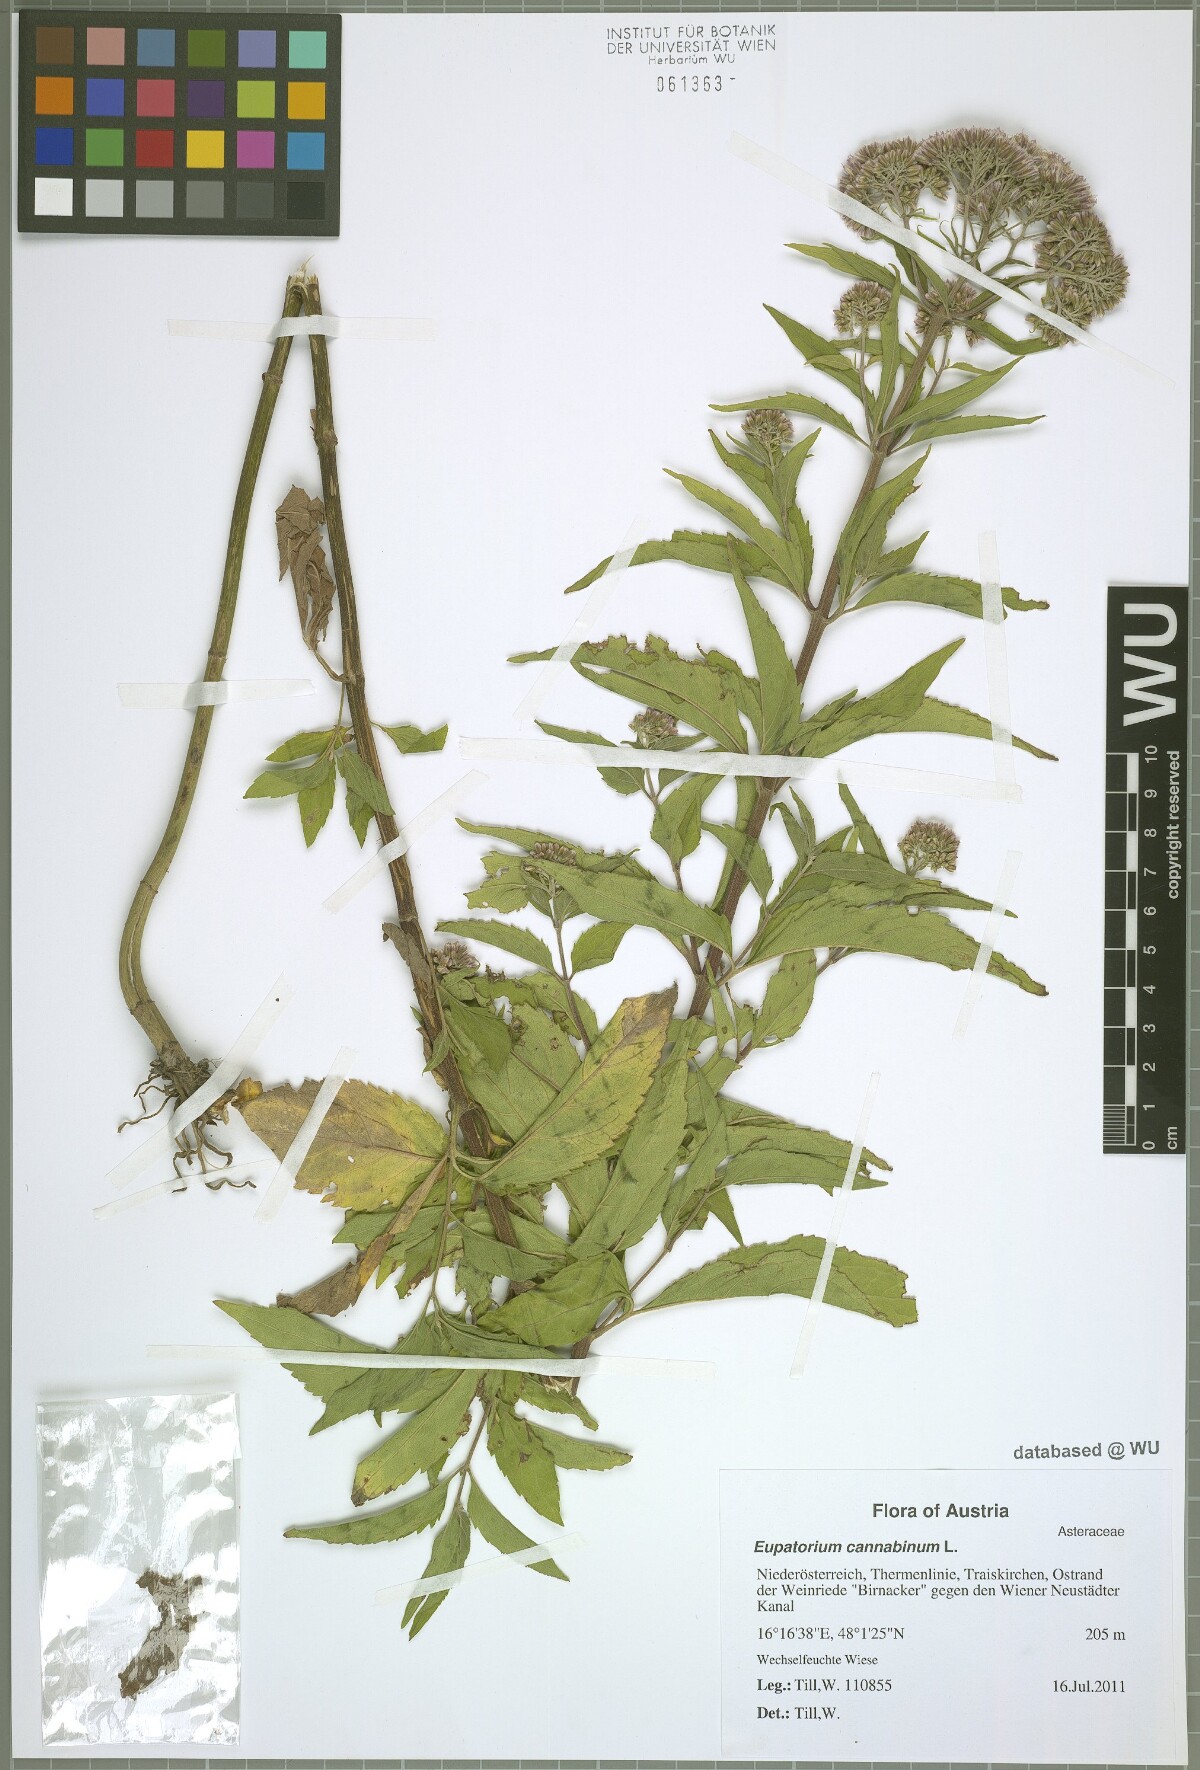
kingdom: Plantae
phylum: Tracheophyta
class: Magnoliopsida
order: Asterales
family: Asteraceae
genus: Eupatorium
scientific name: Eupatorium cannabinum
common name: Hemp-agrimony
